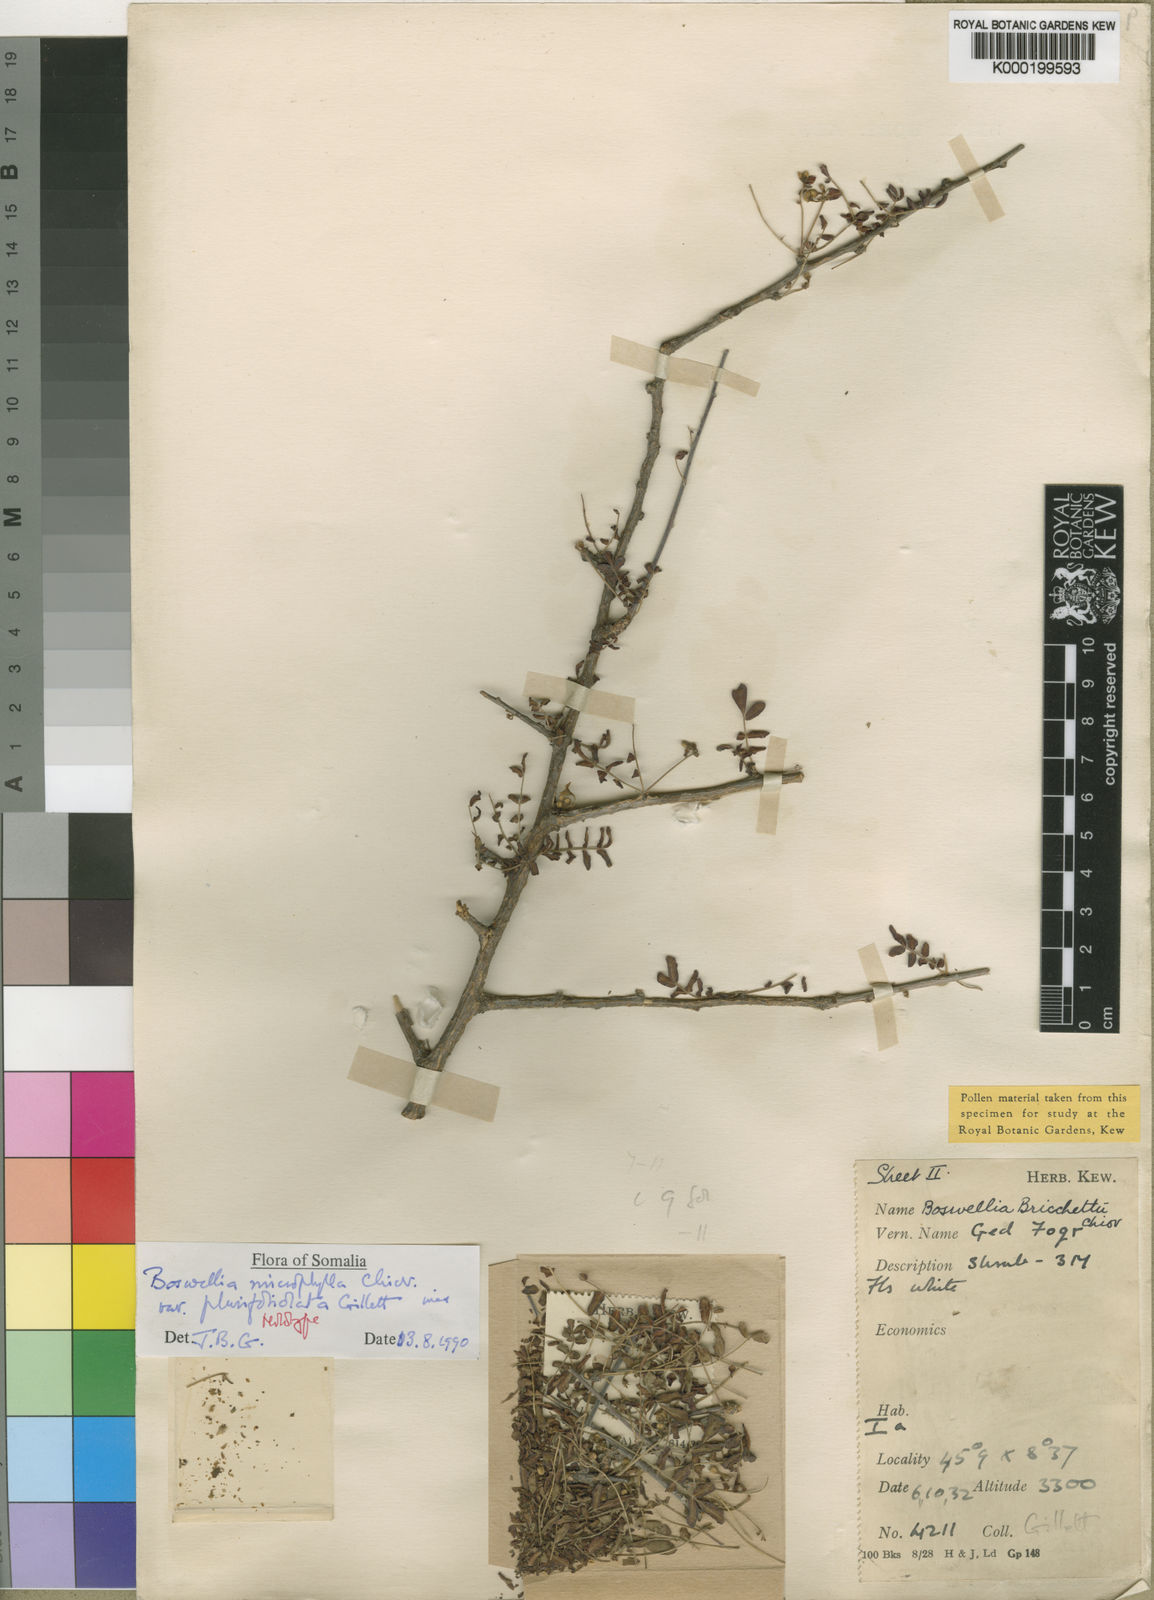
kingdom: Plantae
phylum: Tracheophyta
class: Magnoliopsida
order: Sapindales
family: Burseraceae
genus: Boswellia
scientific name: Boswellia
